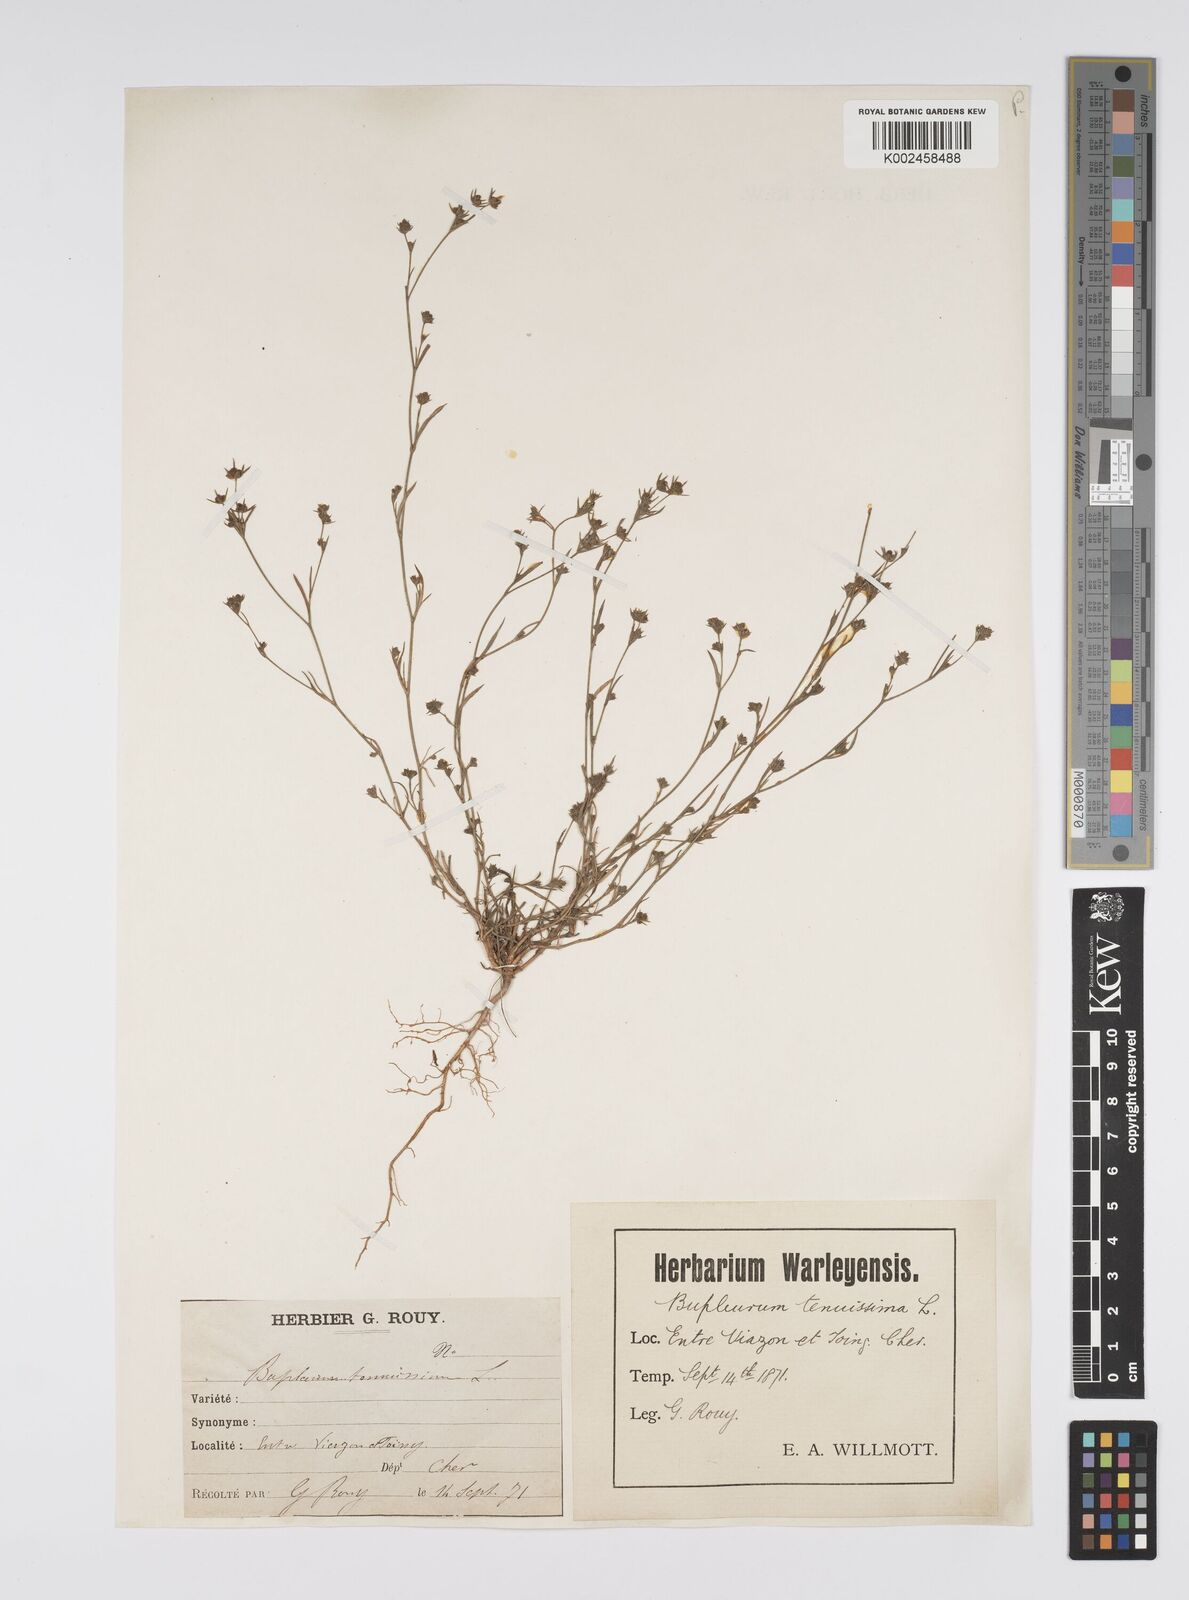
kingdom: Plantae
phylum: Tracheophyta
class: Magnoliopsida
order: Apiales
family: Apiaceae
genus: Bupleurum
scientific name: Bupleurum tenuissimum
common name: Slender hare's-ear
